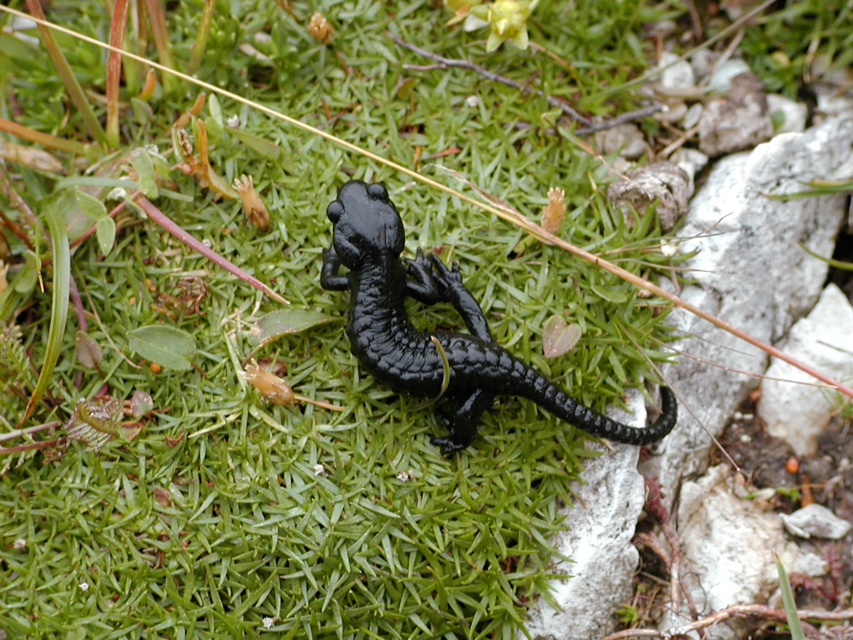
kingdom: Animalia
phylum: Chordata
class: Amphibia
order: Caudata
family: Salamandridae
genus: Salamandra
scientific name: Salamandra atra
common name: Alpine salamander
